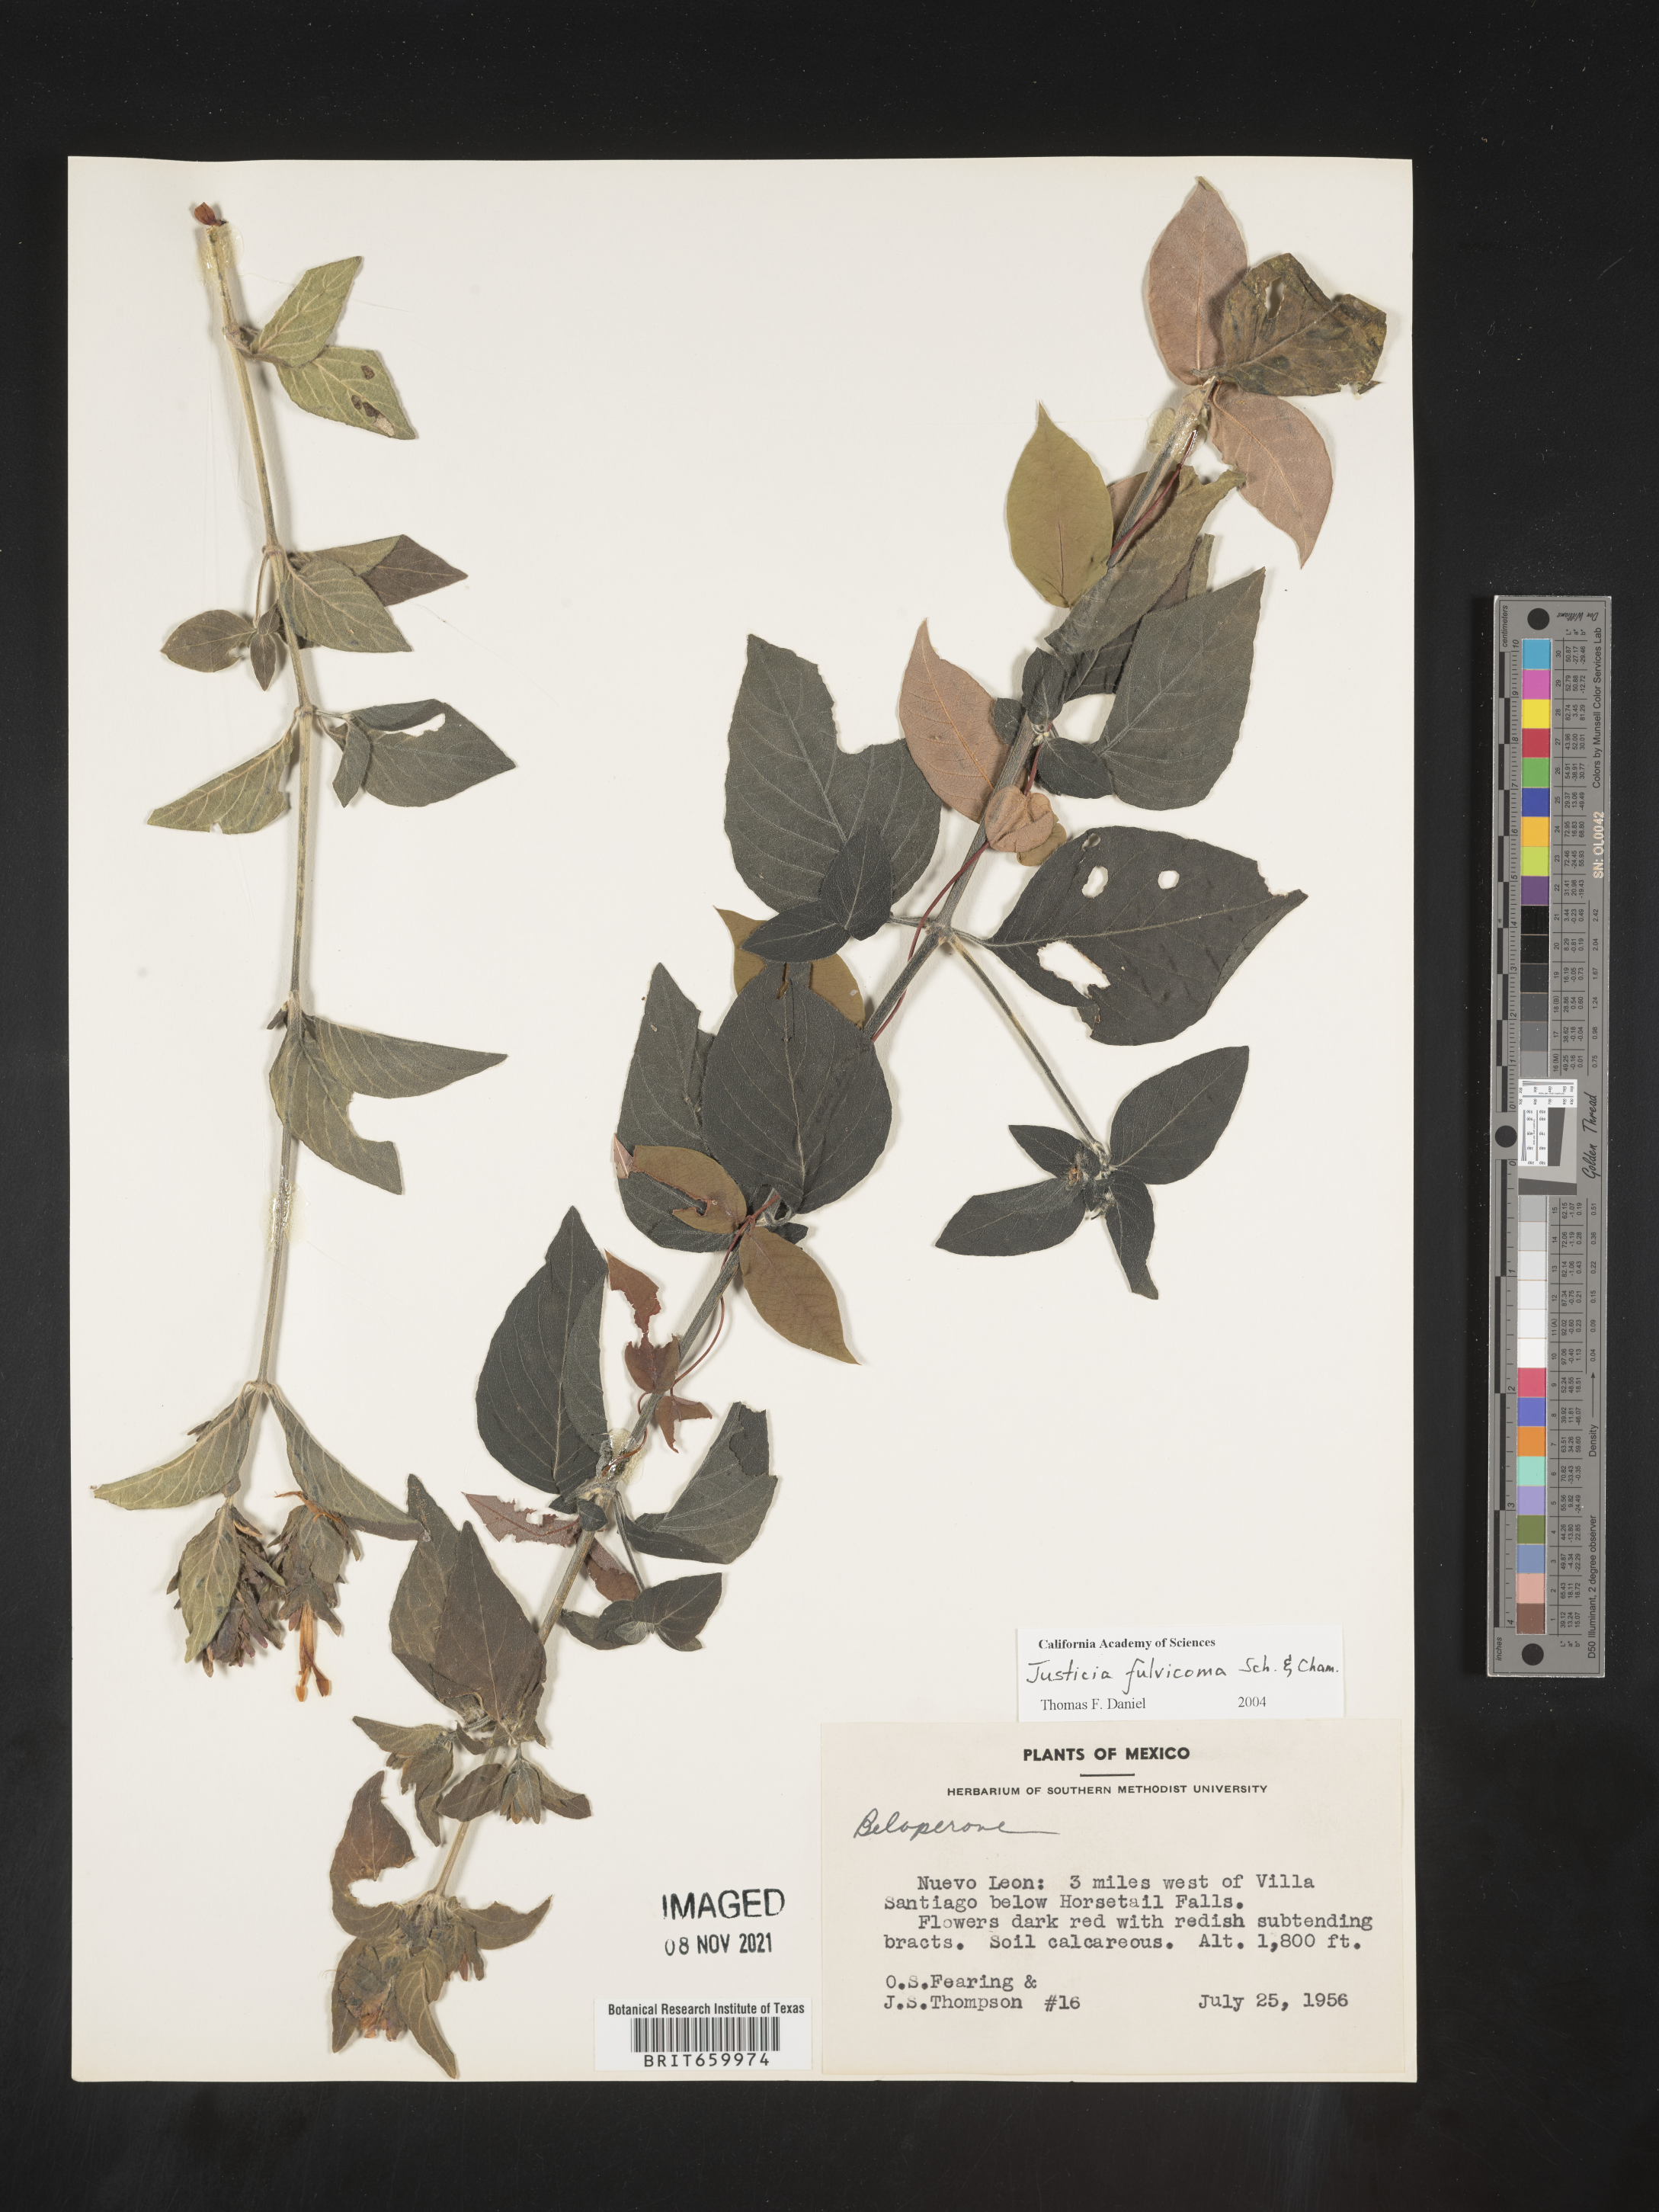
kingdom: Plantae
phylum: Tracheophyta
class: Magnoliopsida
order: Lamiales
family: Acanthaceae
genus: Justicia
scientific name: Justicia
